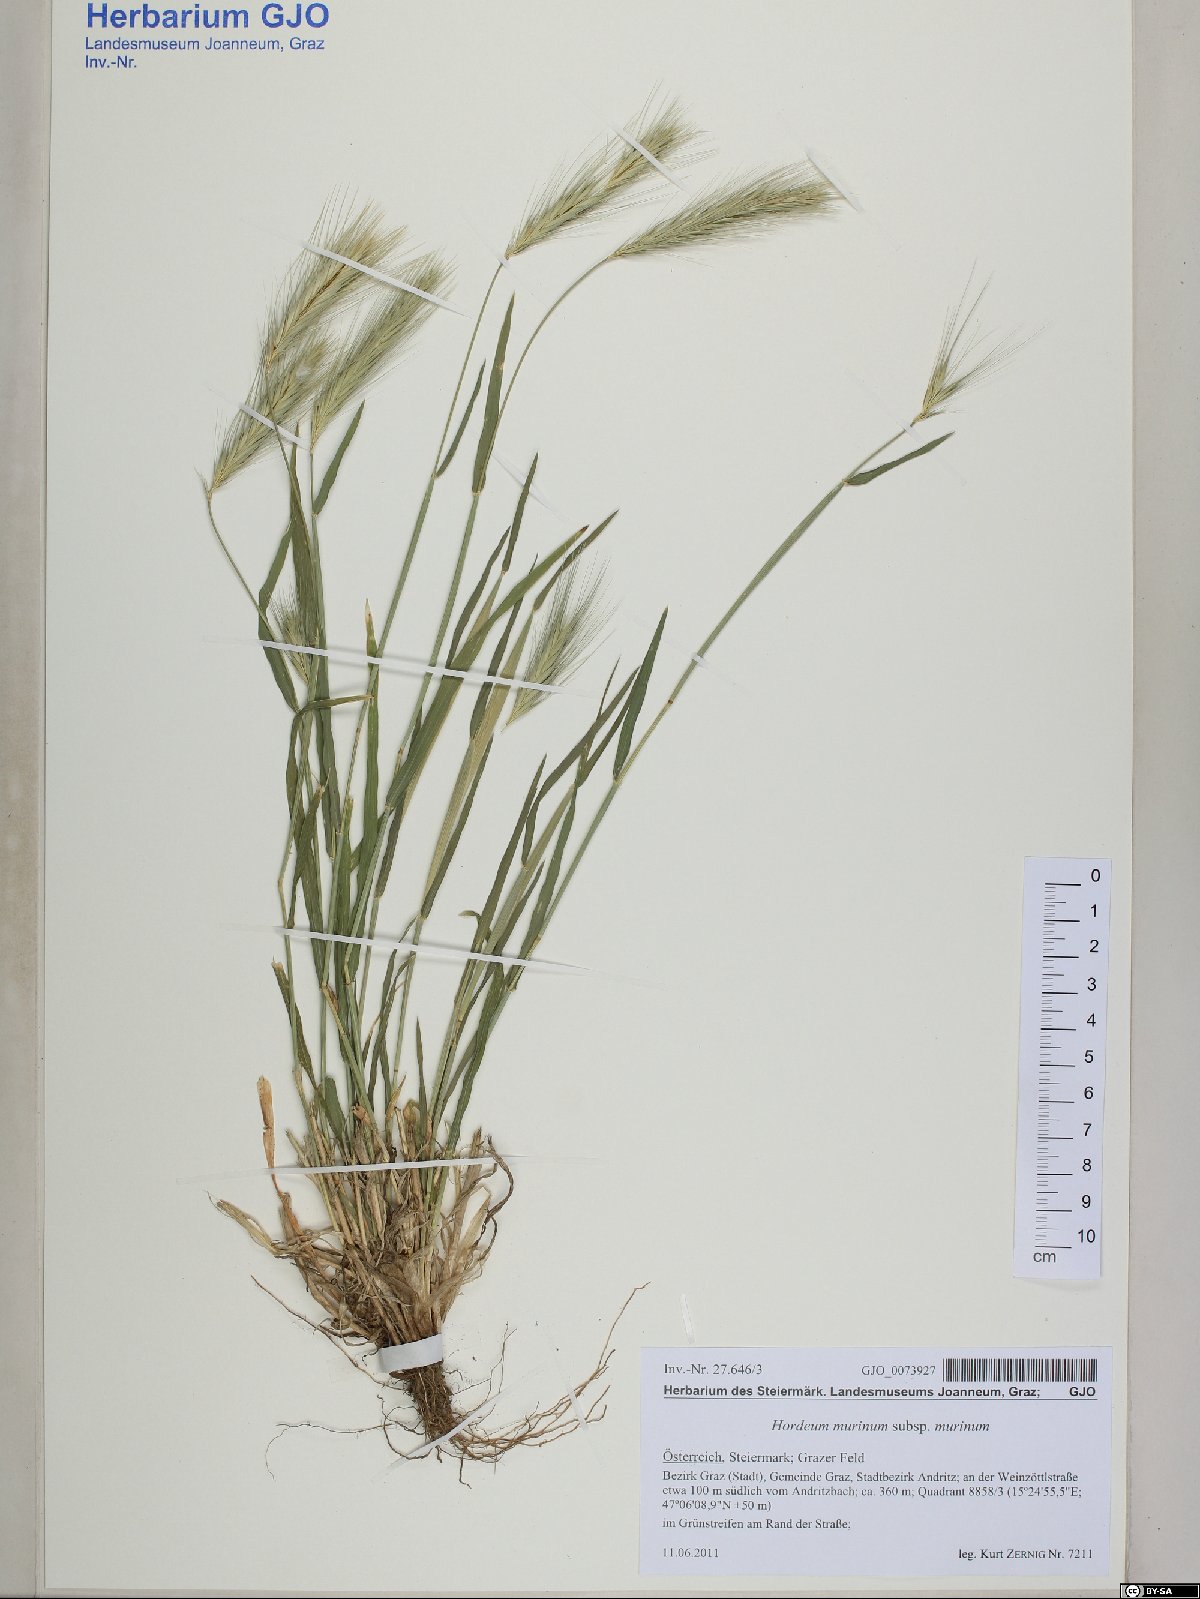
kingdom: Plantae
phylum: Tracheophyta
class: Liliopsida
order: Poales
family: Poaceae
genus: Hordeum
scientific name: Hordeum murinum
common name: Wall barley
